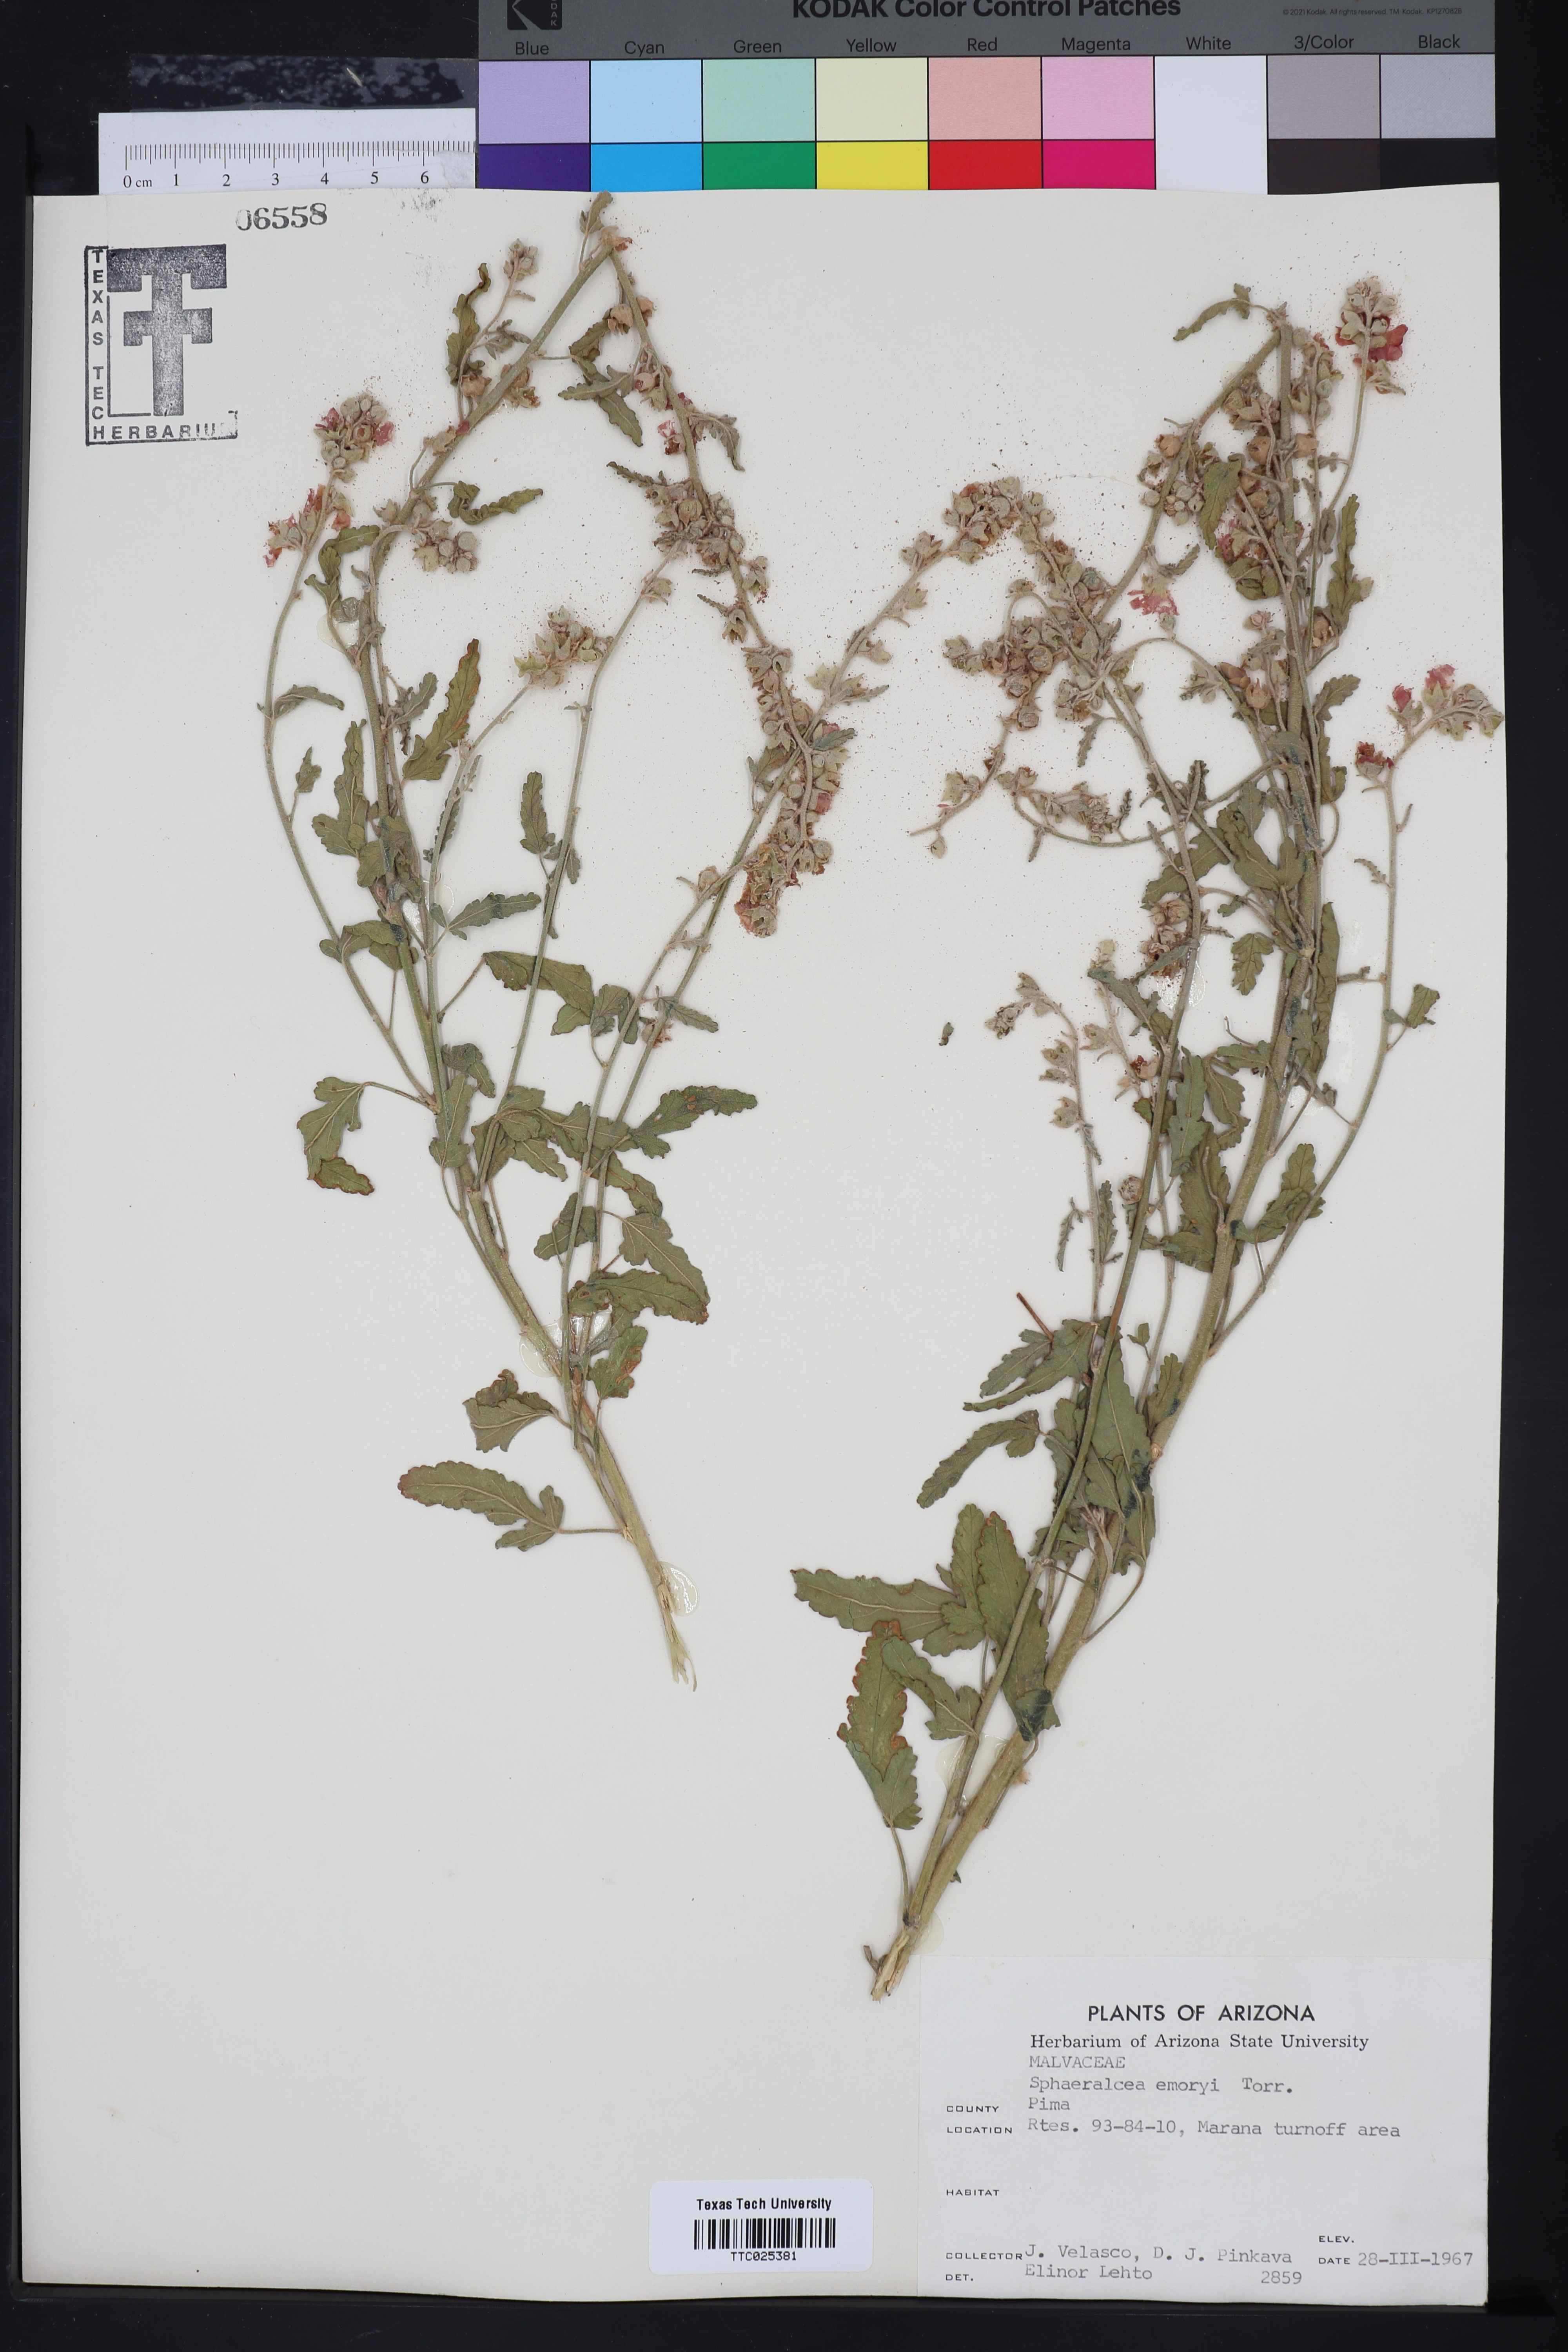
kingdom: Plantae
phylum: Tracheophyta
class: Magnoliopsida
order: Malvales
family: Malvaceae
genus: Sphaeralcea
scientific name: Sphaeralcea emoryi
